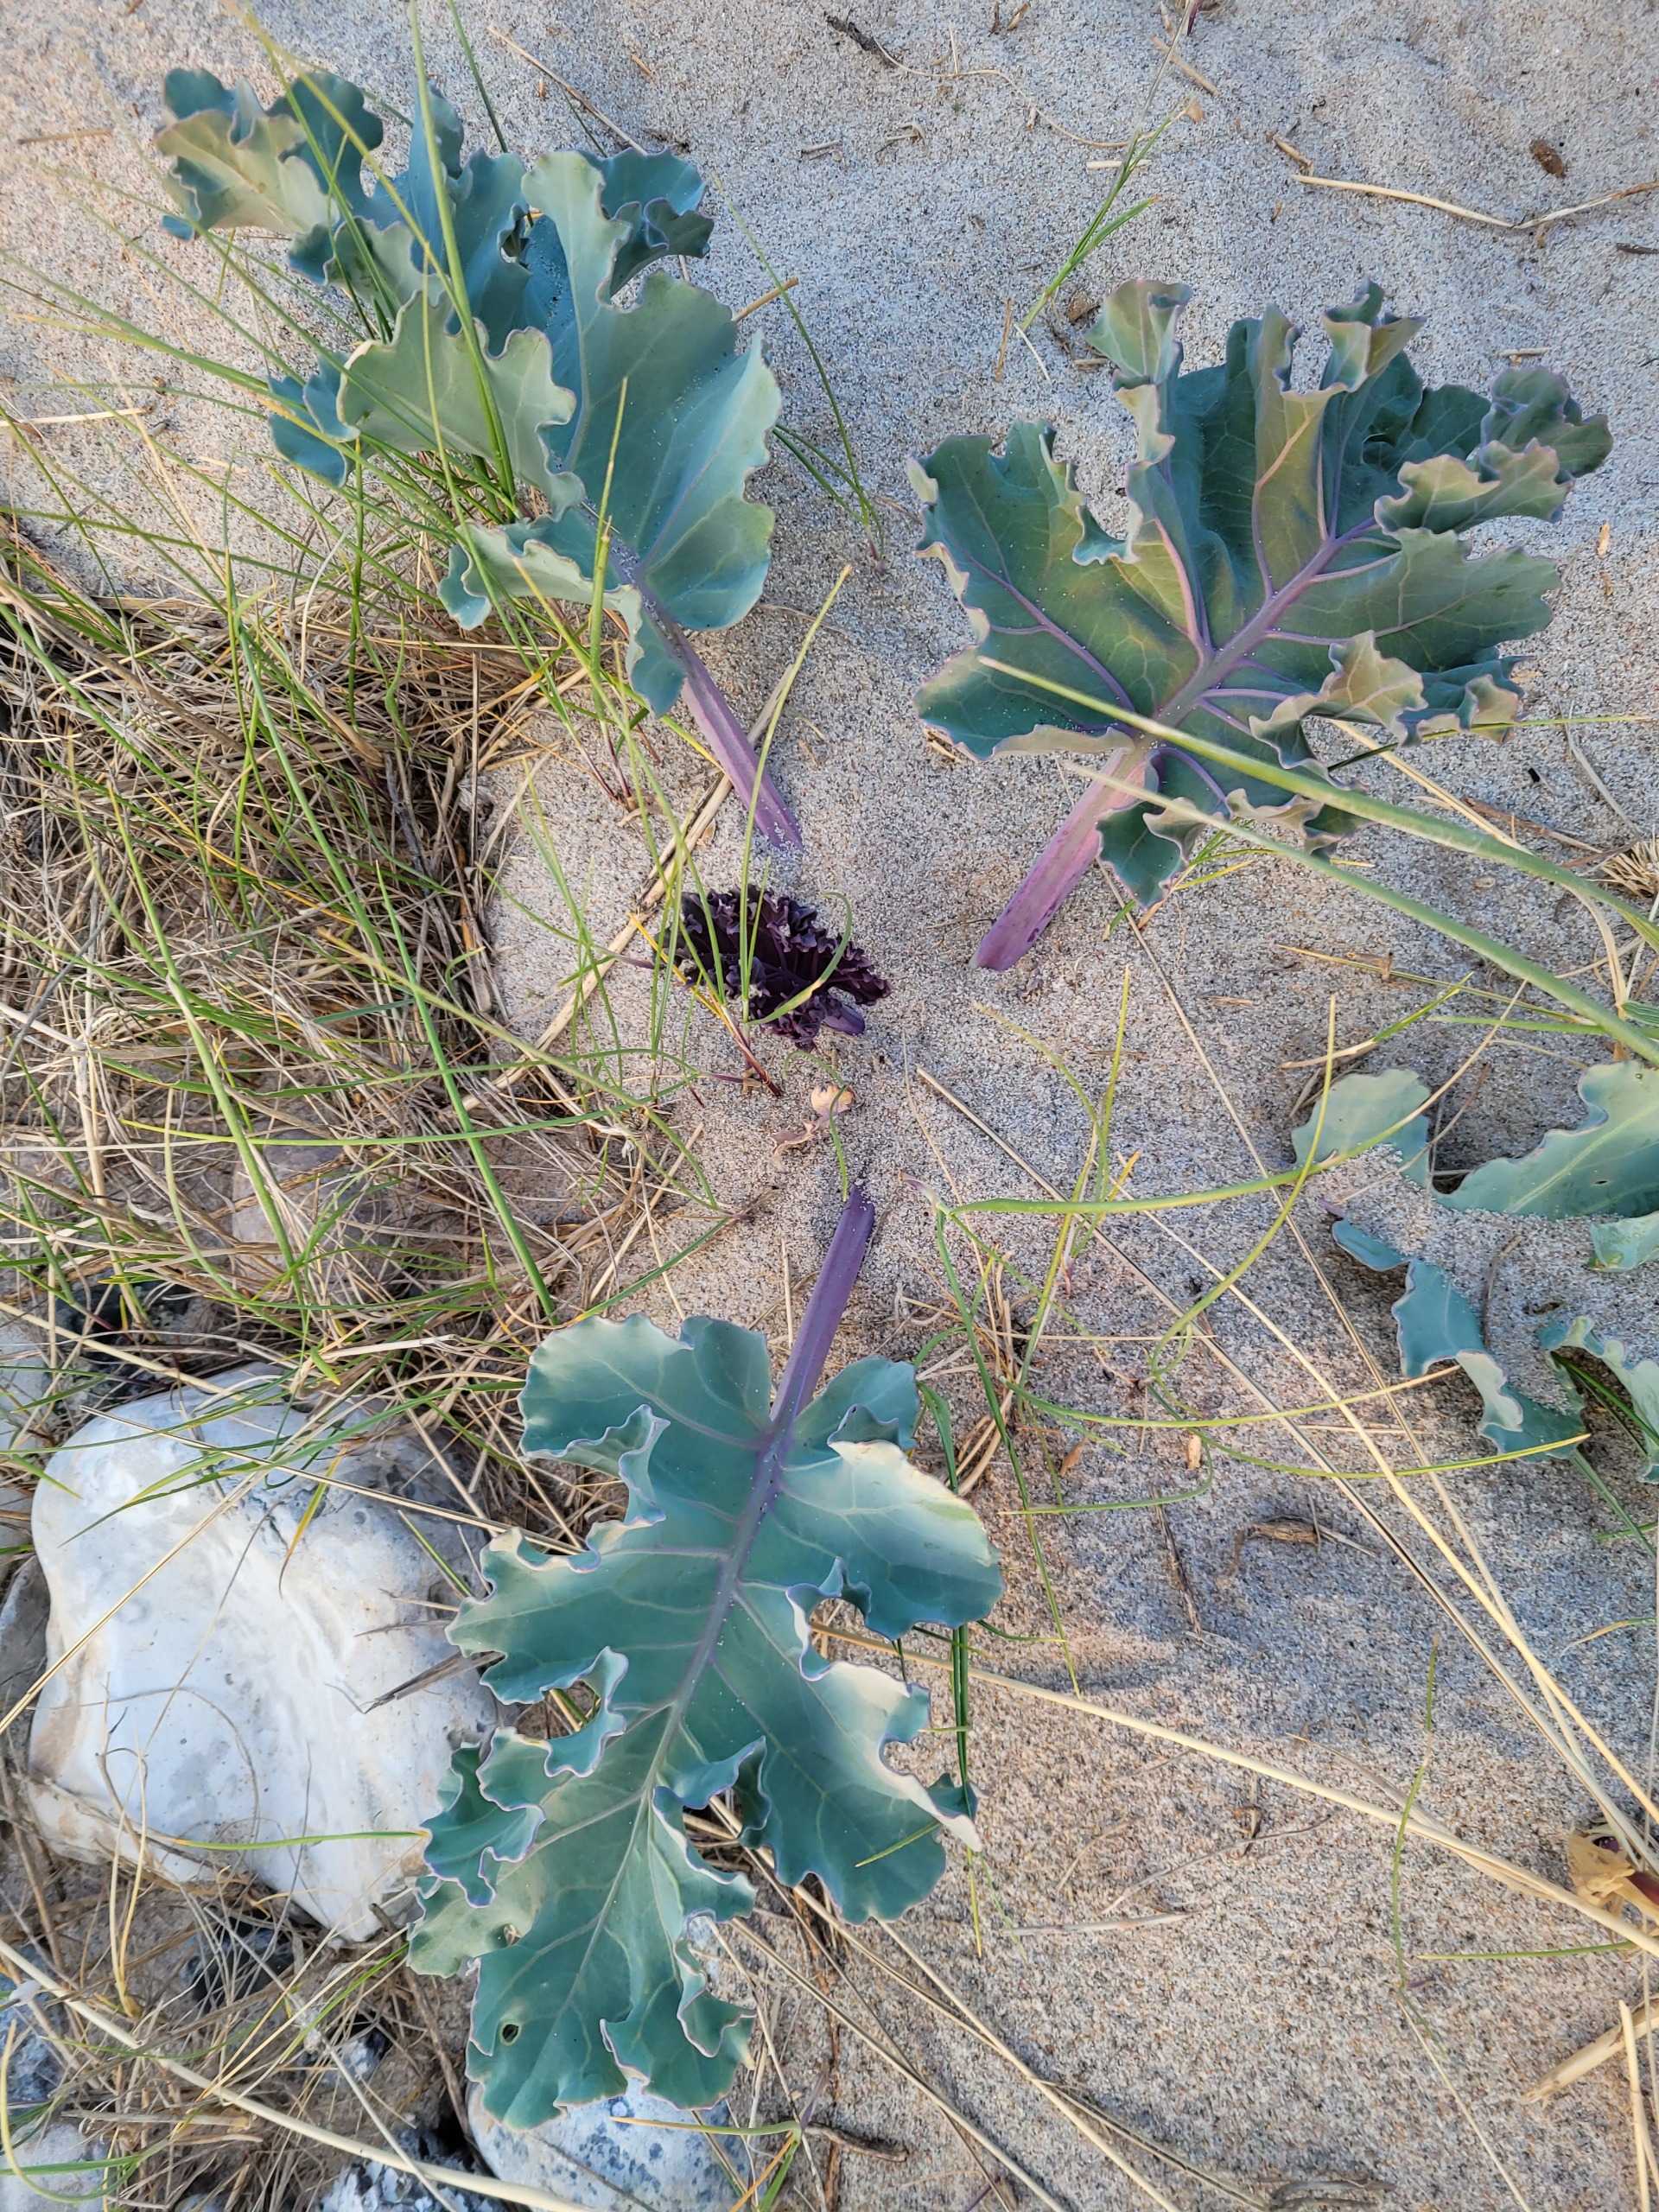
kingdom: Plantae
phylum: Tracheophyta
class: Magnoliopsida
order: Brassicales
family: Brassicaceae
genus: Crambe
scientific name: Crambe maritima
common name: Strandkål
